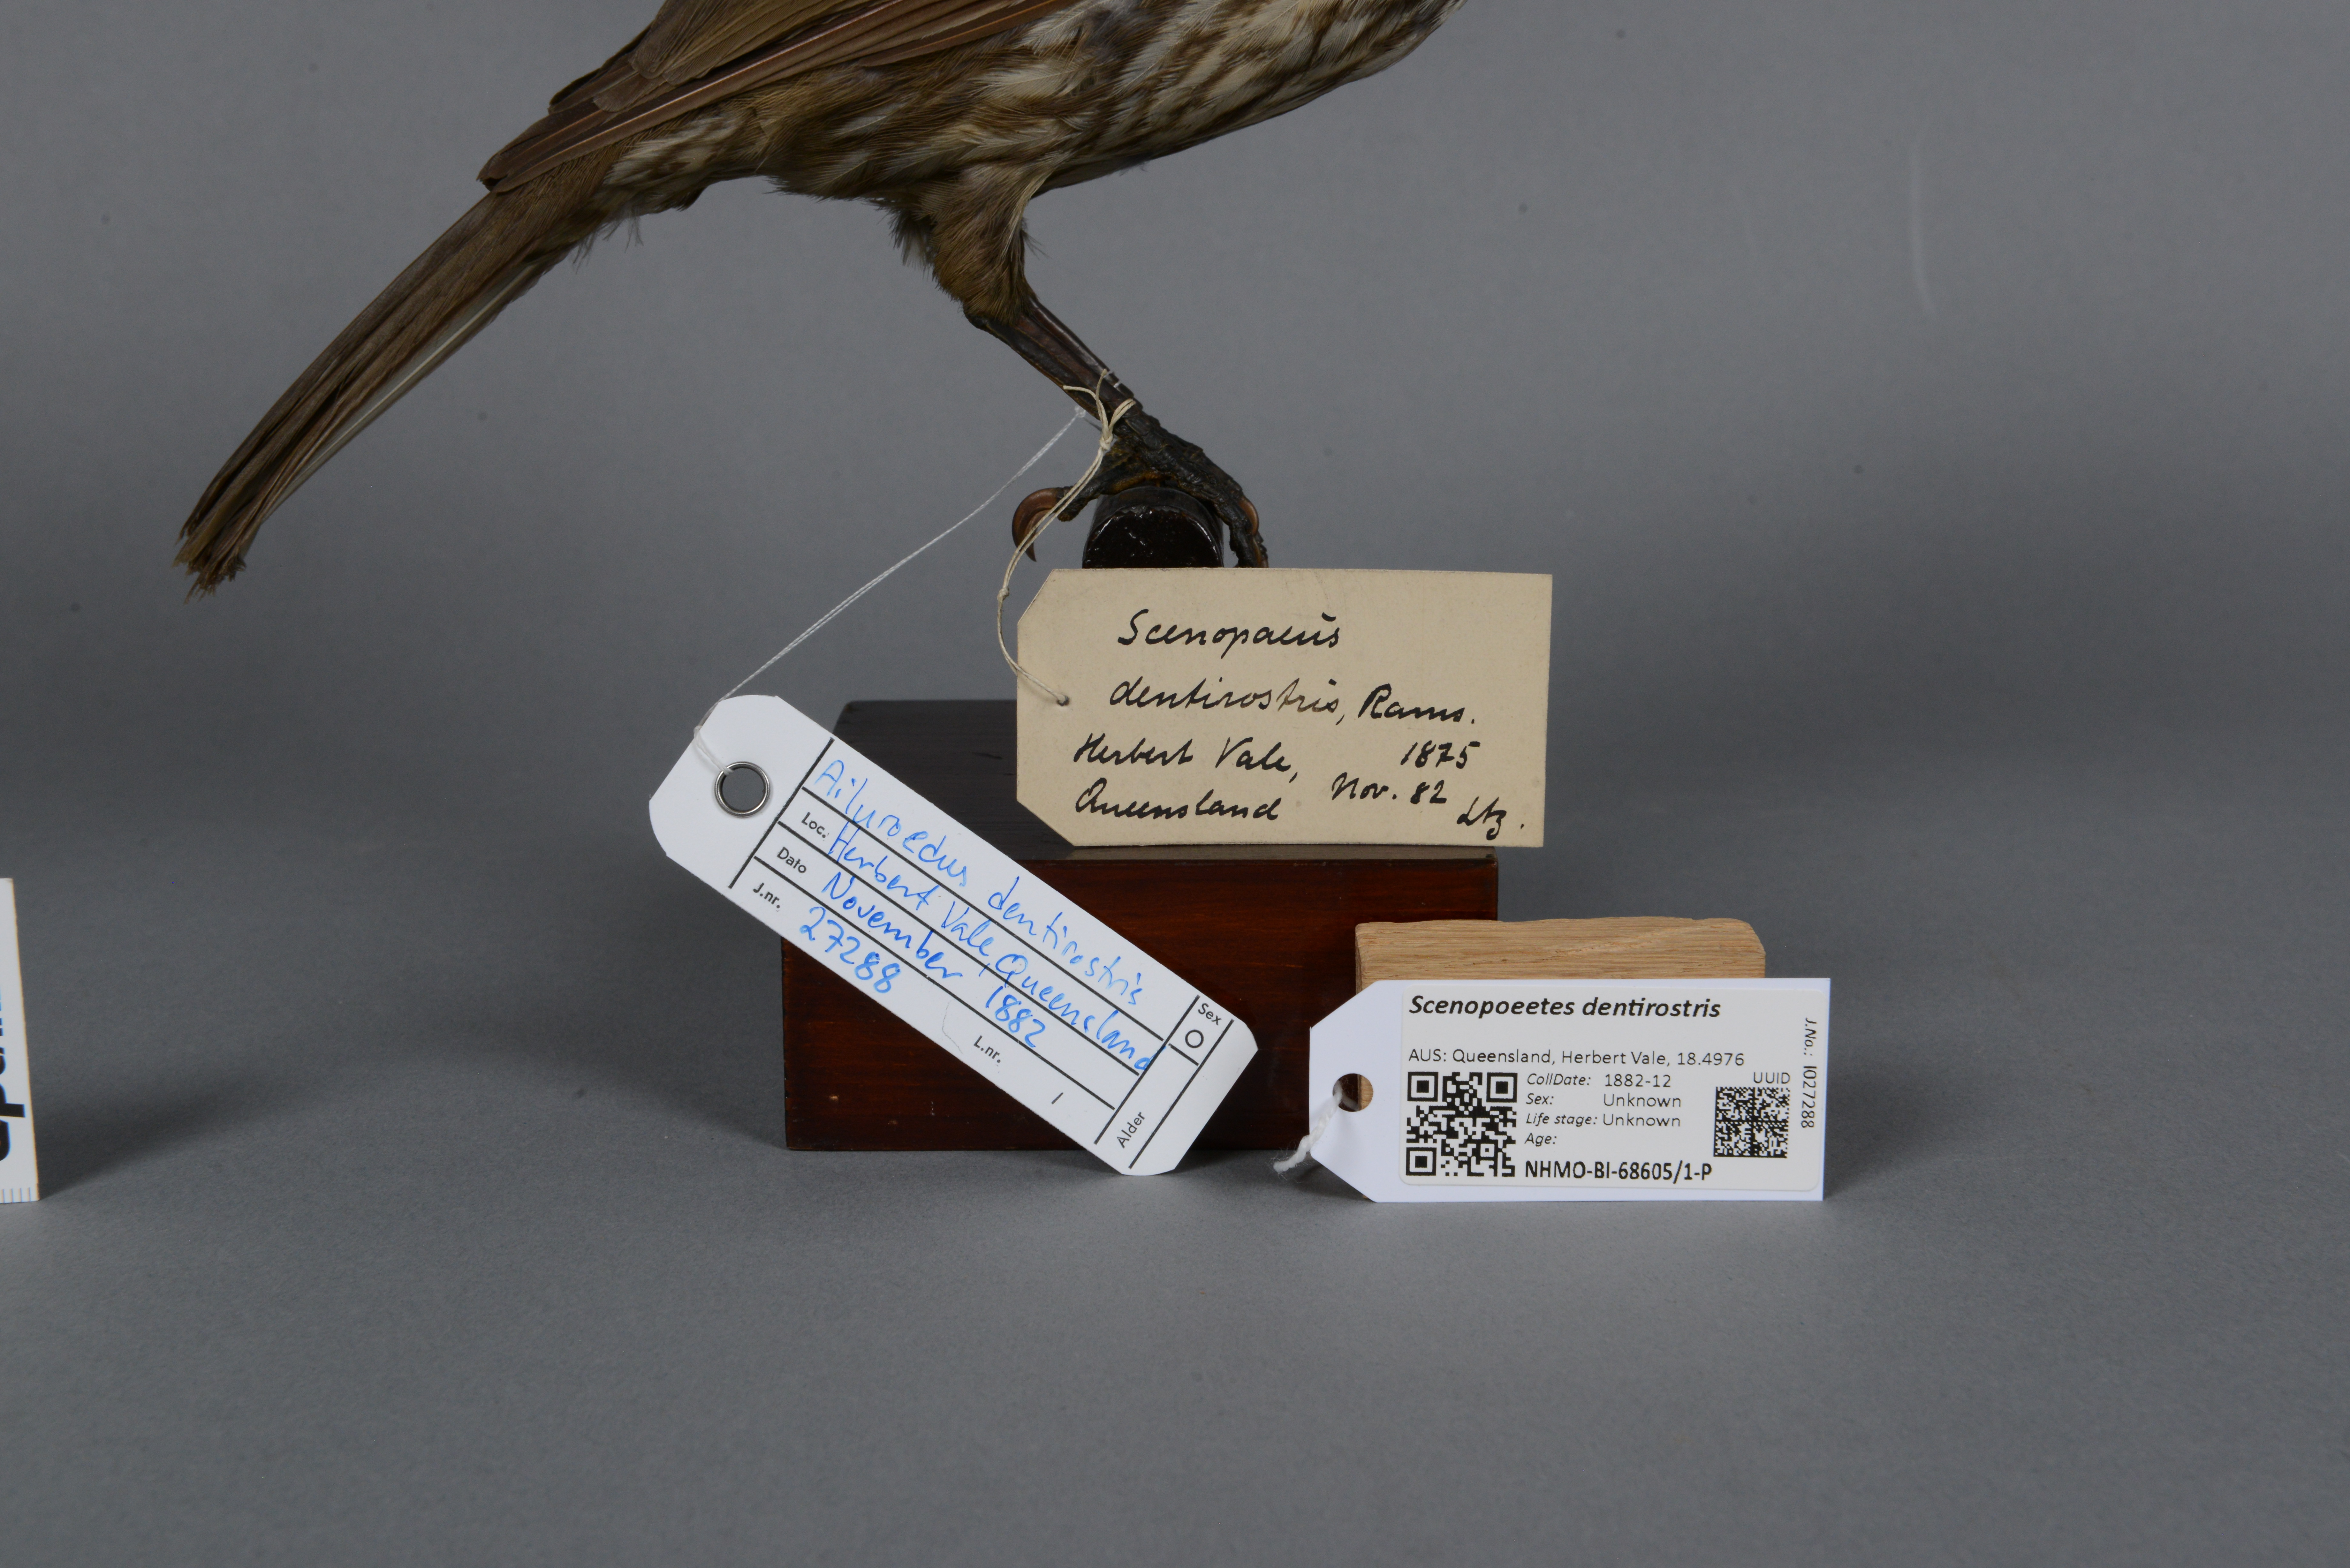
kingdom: Animalia
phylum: Chordata
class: Aves
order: Passeriformes
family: Ptilonorhynchidae
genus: Scenopoeetes
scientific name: Scenopoeetes dentirostris
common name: Tooth-billed bowerbird
